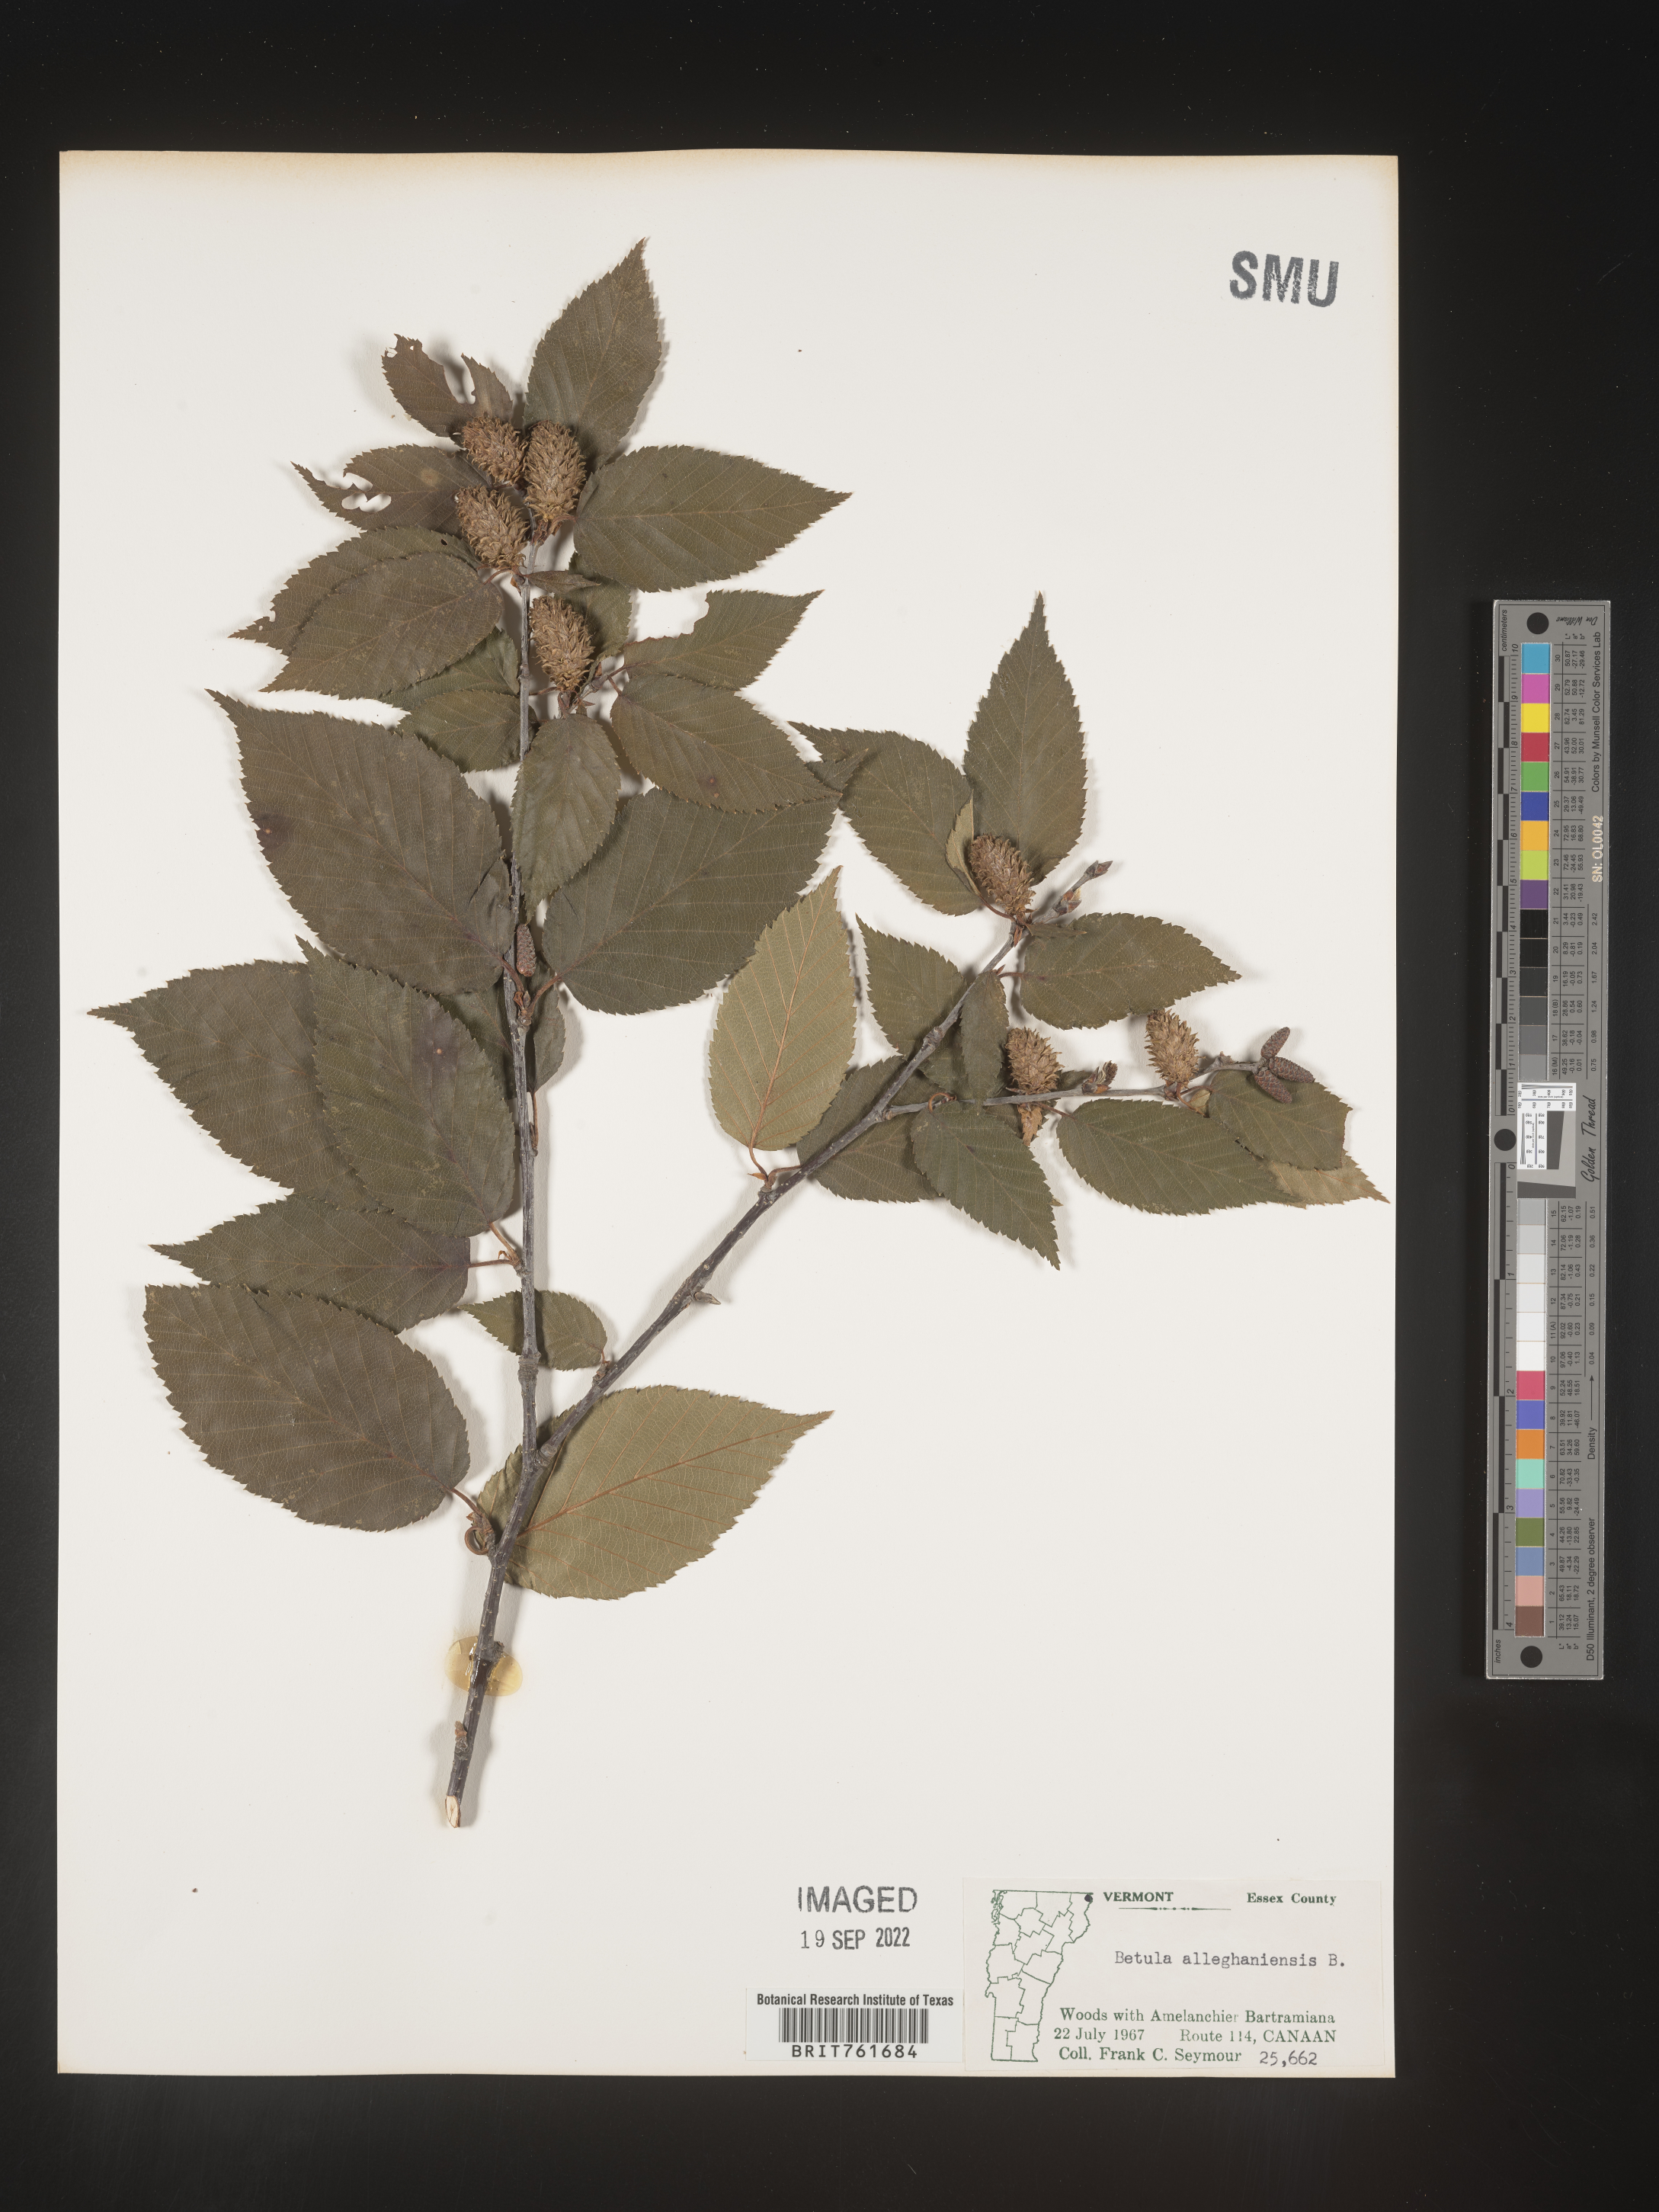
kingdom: Plantae
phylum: Tracheophyta
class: Magnoliopsida
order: Fagales
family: Betulaceae
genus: Betula
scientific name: Betula alleghaniensis
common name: Yellow birch
